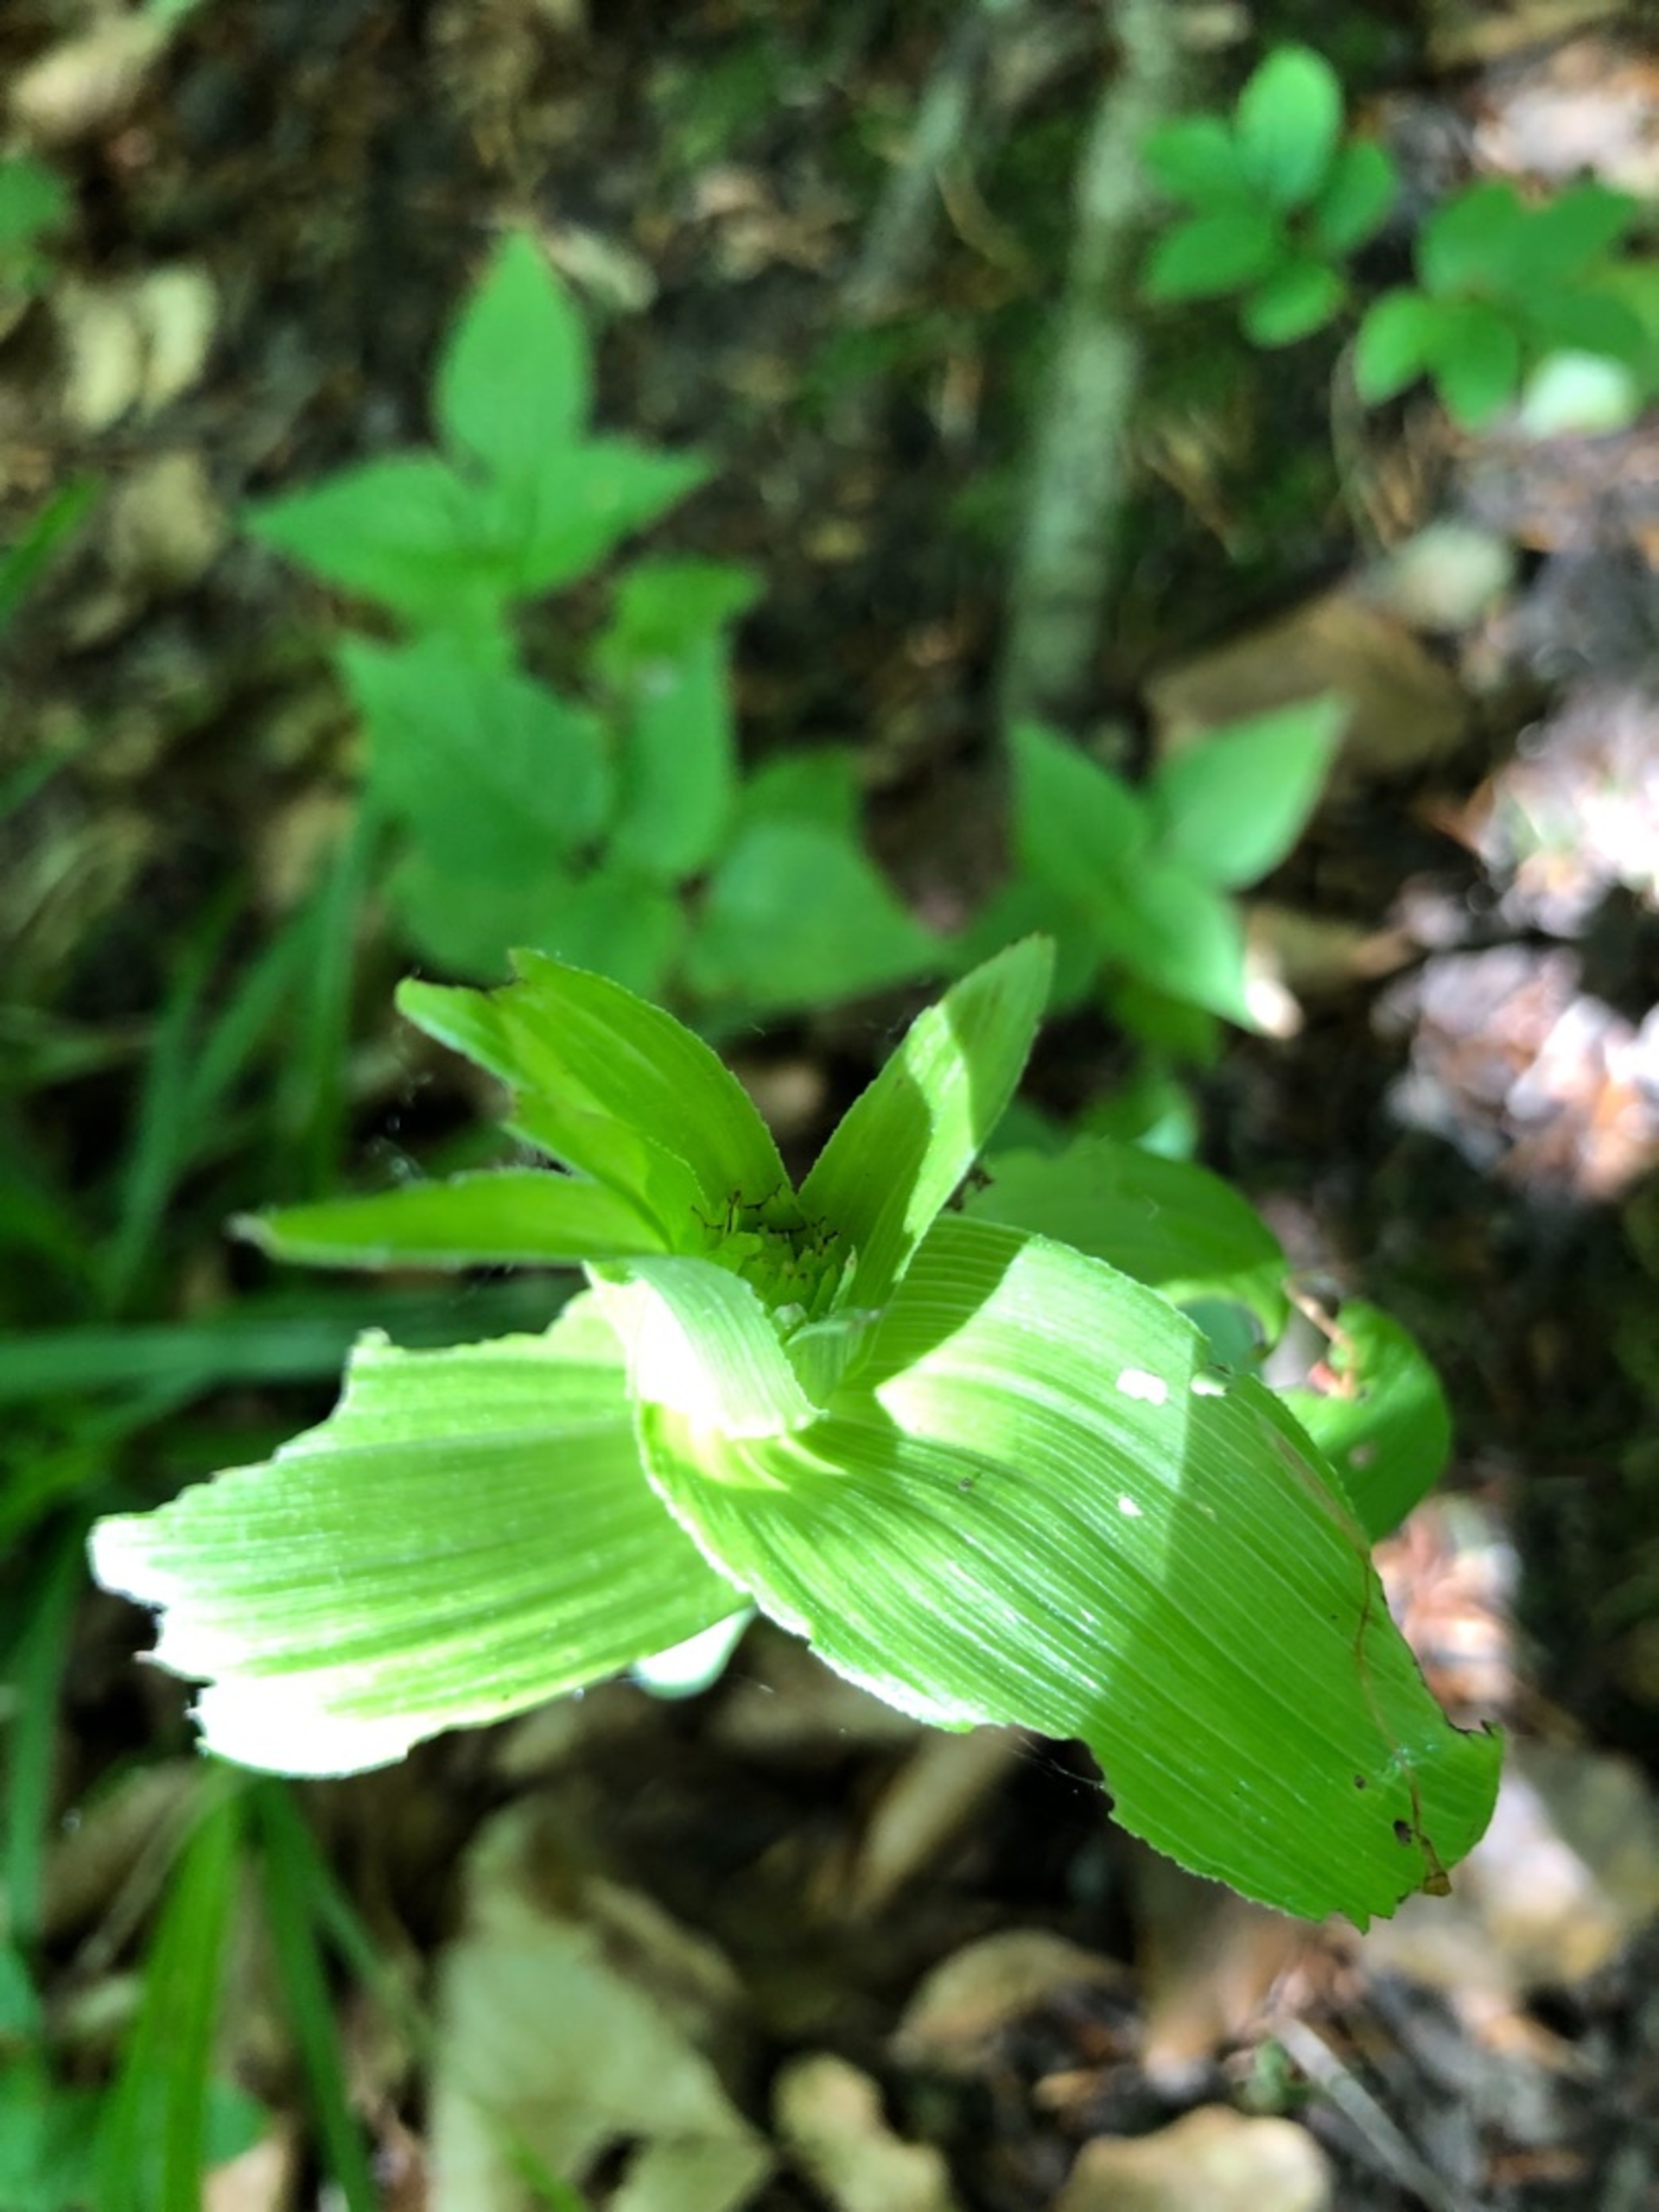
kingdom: Plantae
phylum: Tracheophyta
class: Liliopsida
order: Asparagales
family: Orchidaceae
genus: Epipactis
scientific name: Epipactis helleborine
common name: Skov-hullæbe
